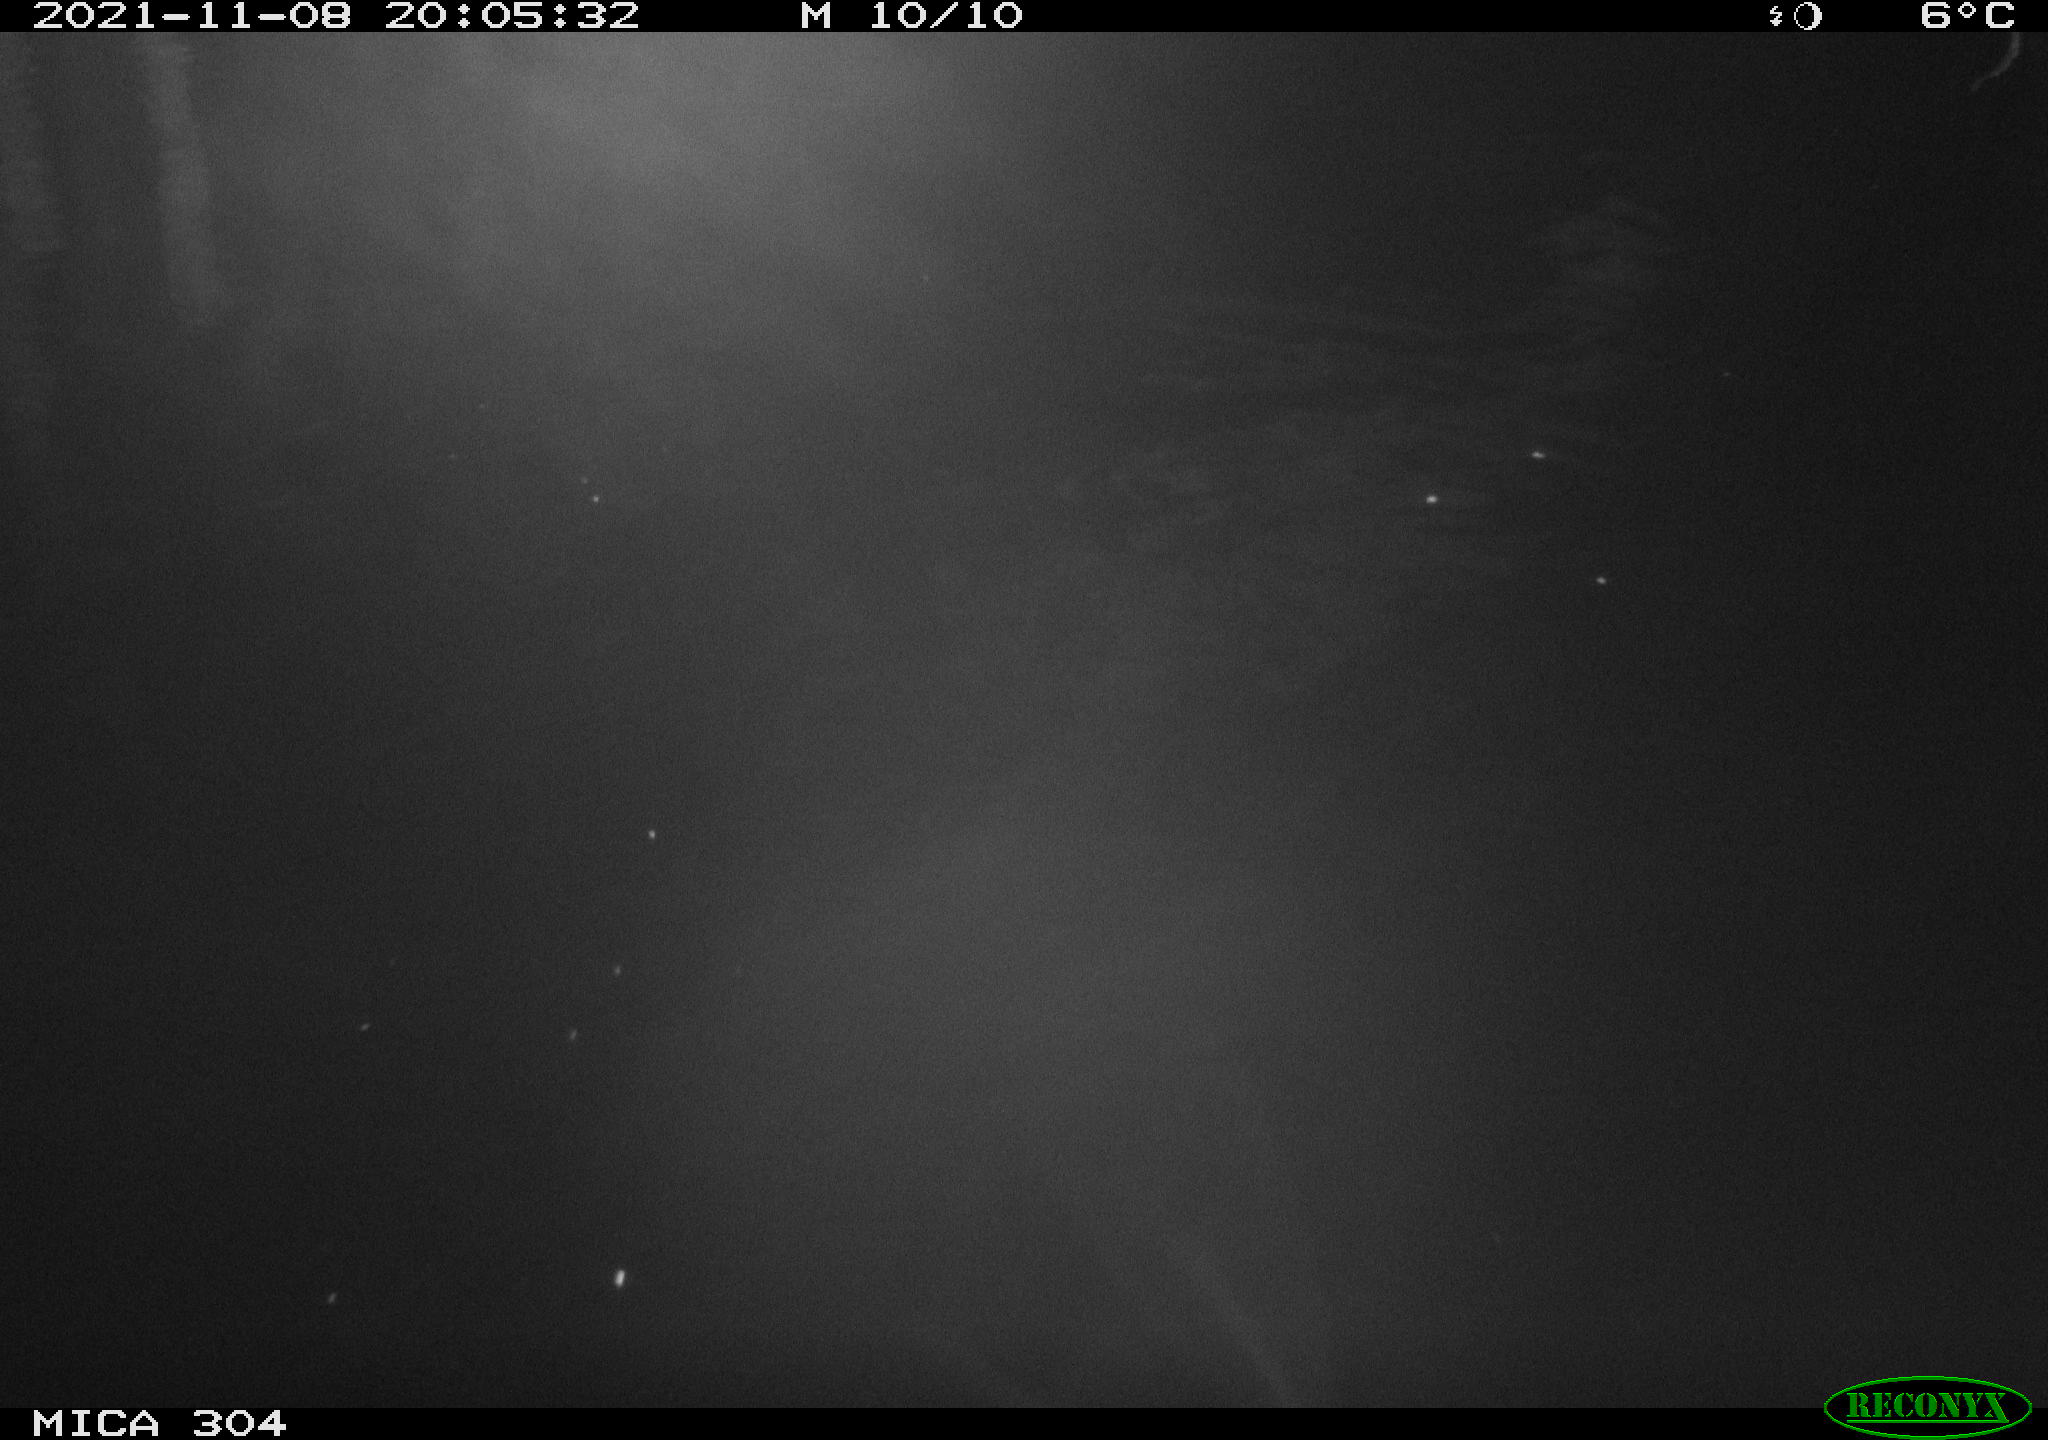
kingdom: Animalia
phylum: Chordata
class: Mammalia
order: Rodentia
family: Muridae
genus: Rattus
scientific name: Rattus norvegicus
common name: Brown rat
